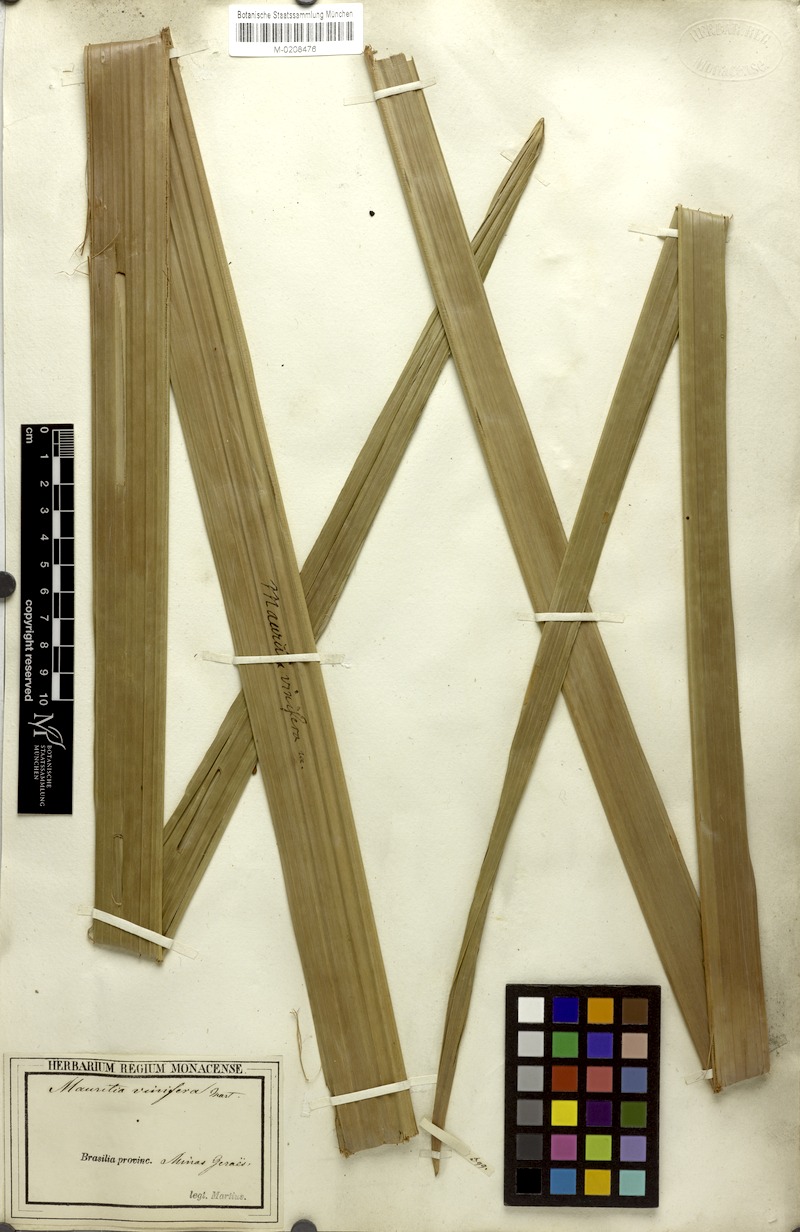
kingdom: Plantae
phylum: Tracheophyta
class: Liliopsida
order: Arecales
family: Arecaceae
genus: Mauritia
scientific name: Mauritia flexuosa
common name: Tree-of-life
